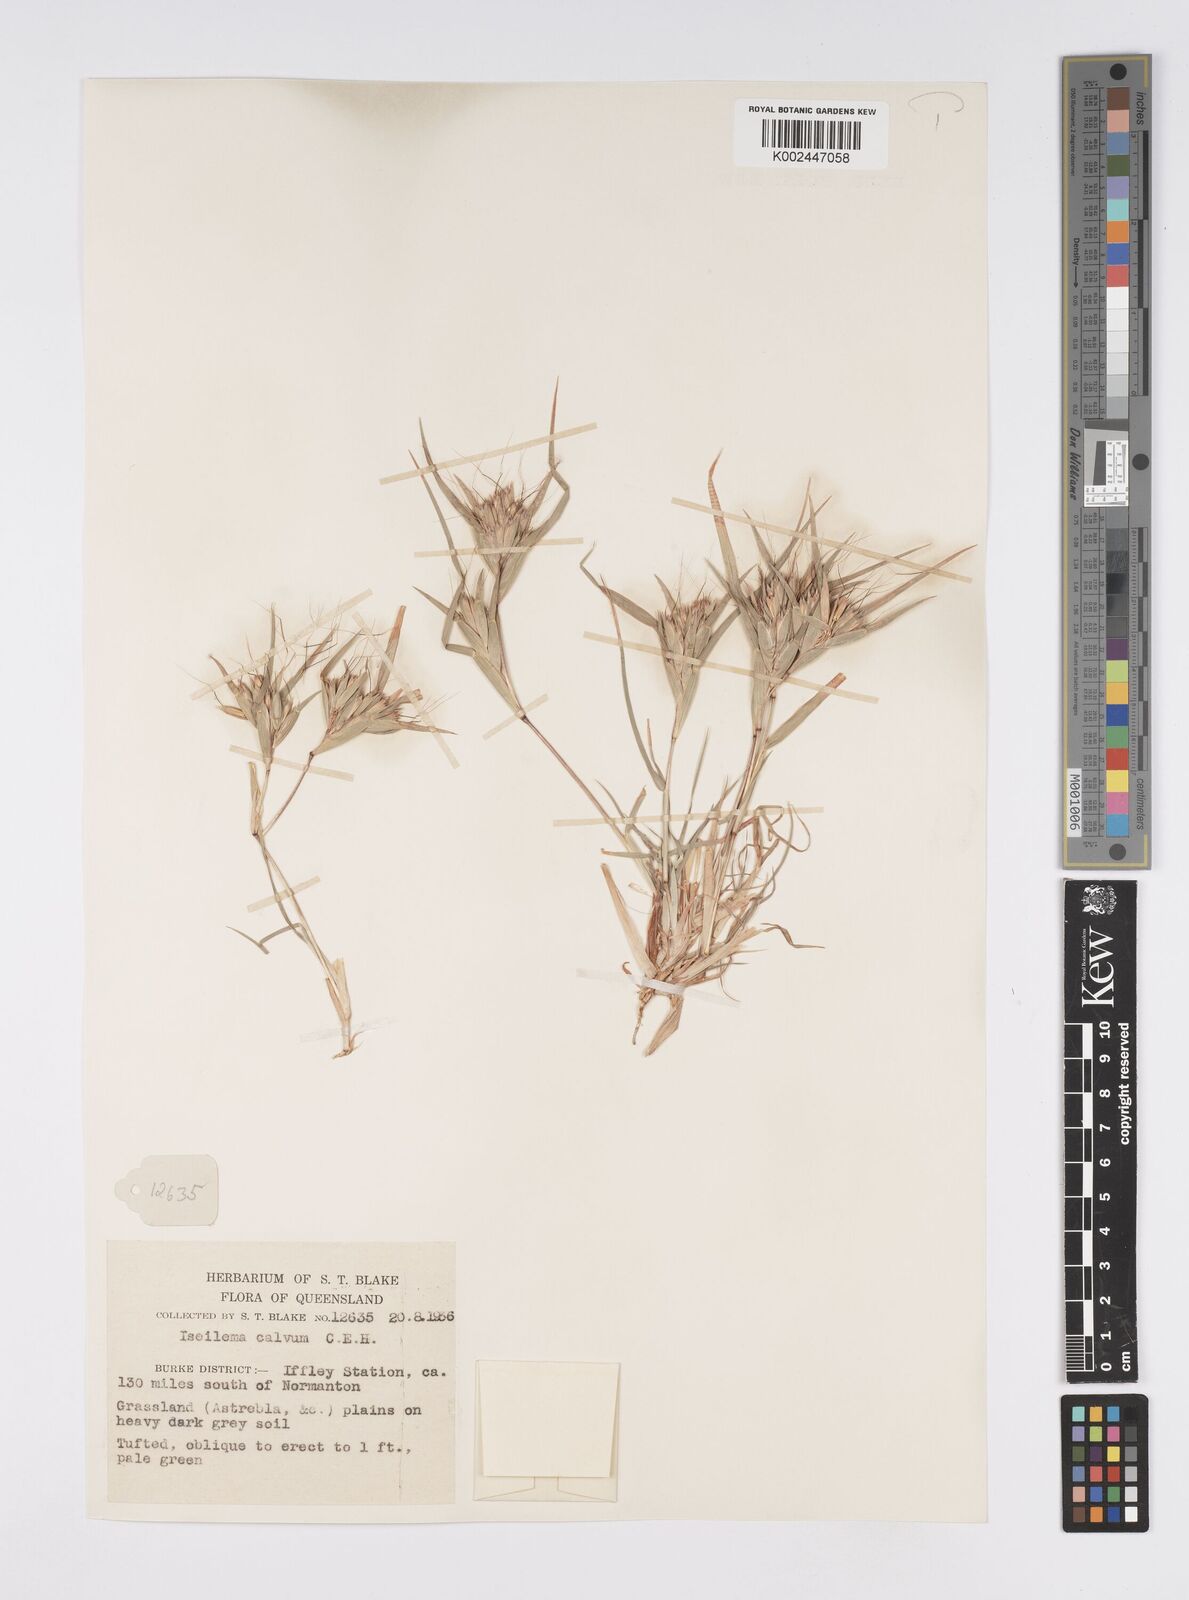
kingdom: Plantae
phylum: Tracheophyta
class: Liliopsida
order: Poales
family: Poaceae
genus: Iseilema
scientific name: Iseilema calvum
